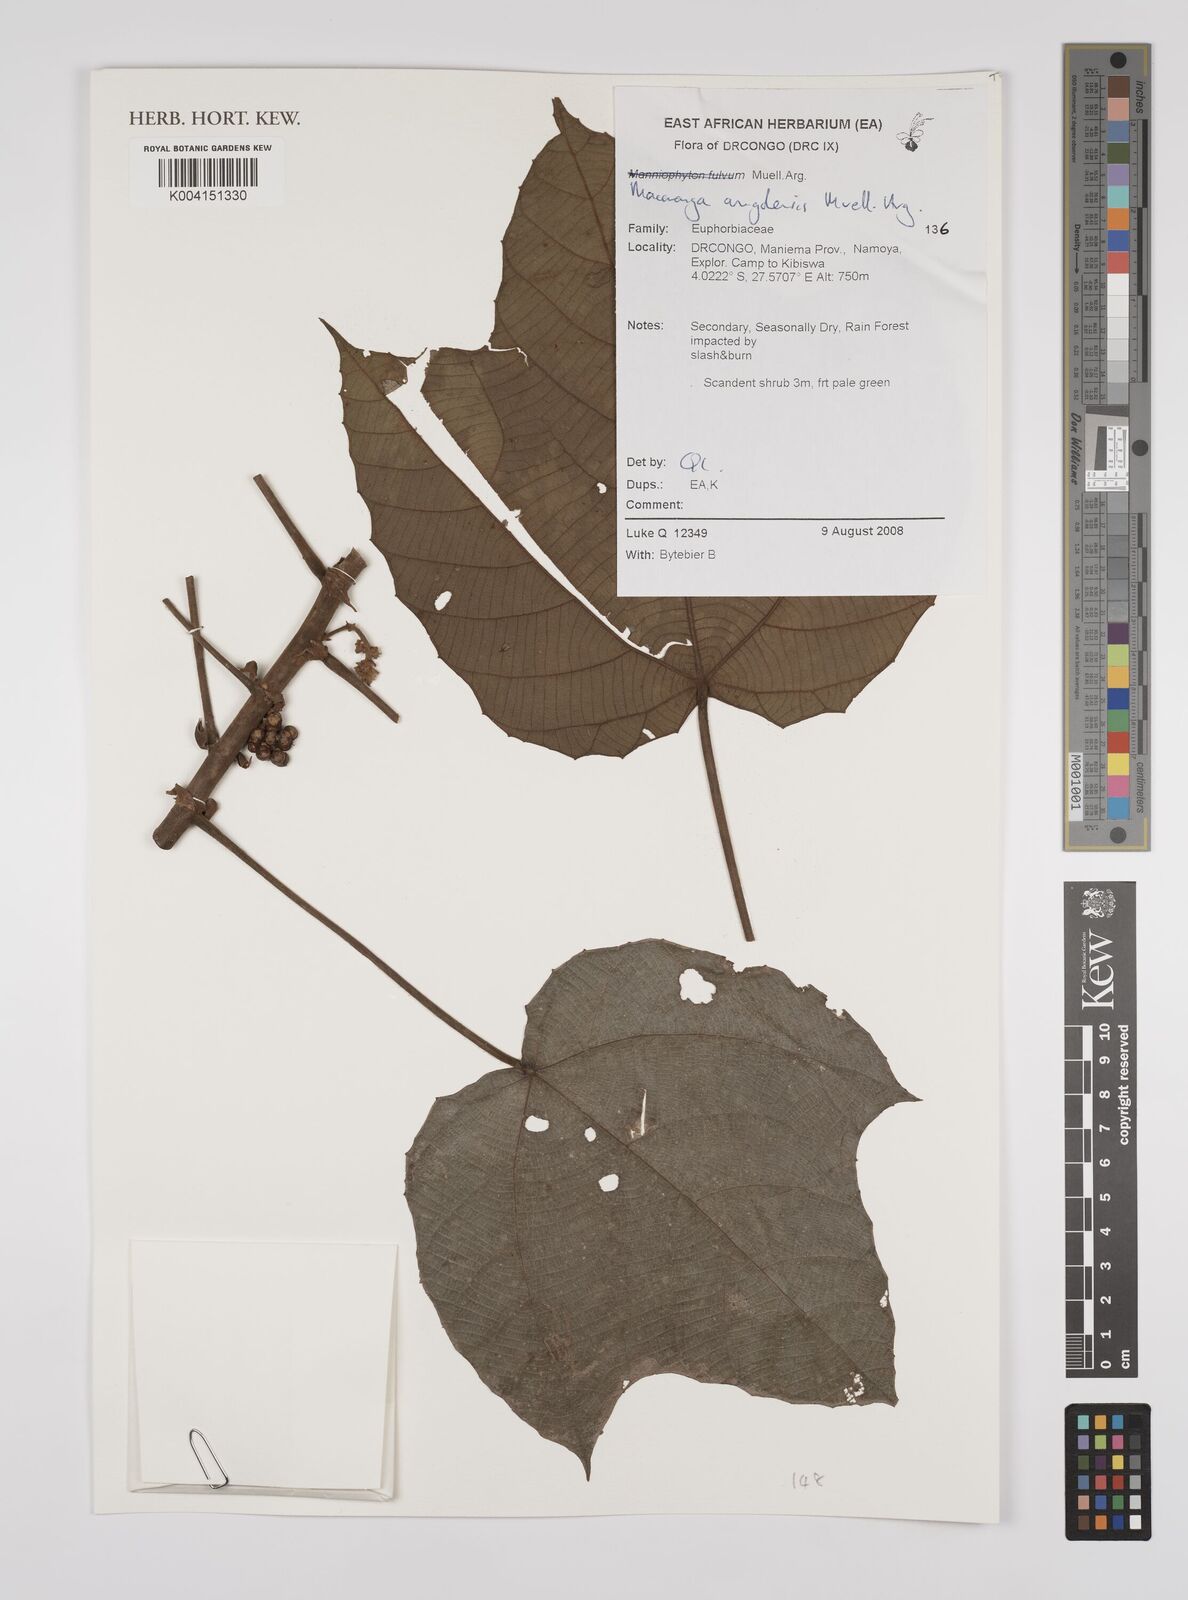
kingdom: Plantae
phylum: Tracheophyta
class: Magnoliopsida
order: Malpighiales
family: Euphorbiaceae
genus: Macaranga
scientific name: Macaranga angolensis
